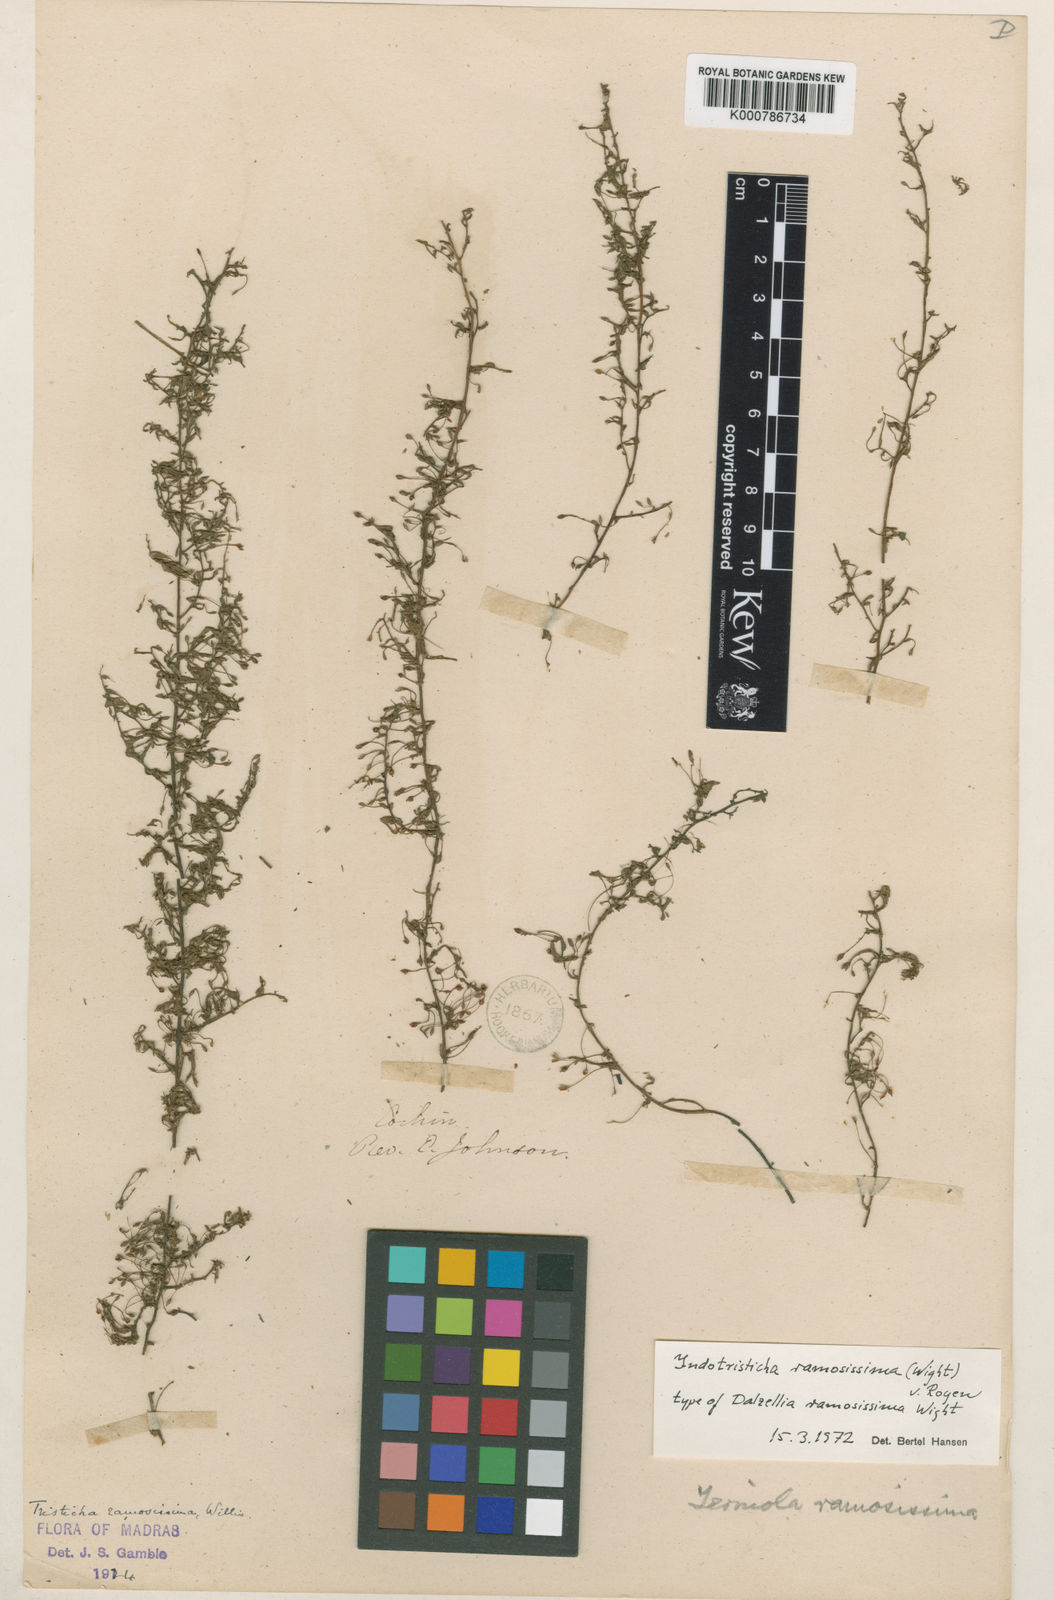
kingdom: Plantae
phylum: Tracheophyta
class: Magnoliopsida
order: Malpighiales
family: Podostemaceae
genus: Indotristicha
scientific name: Indotristicha ramosissima
